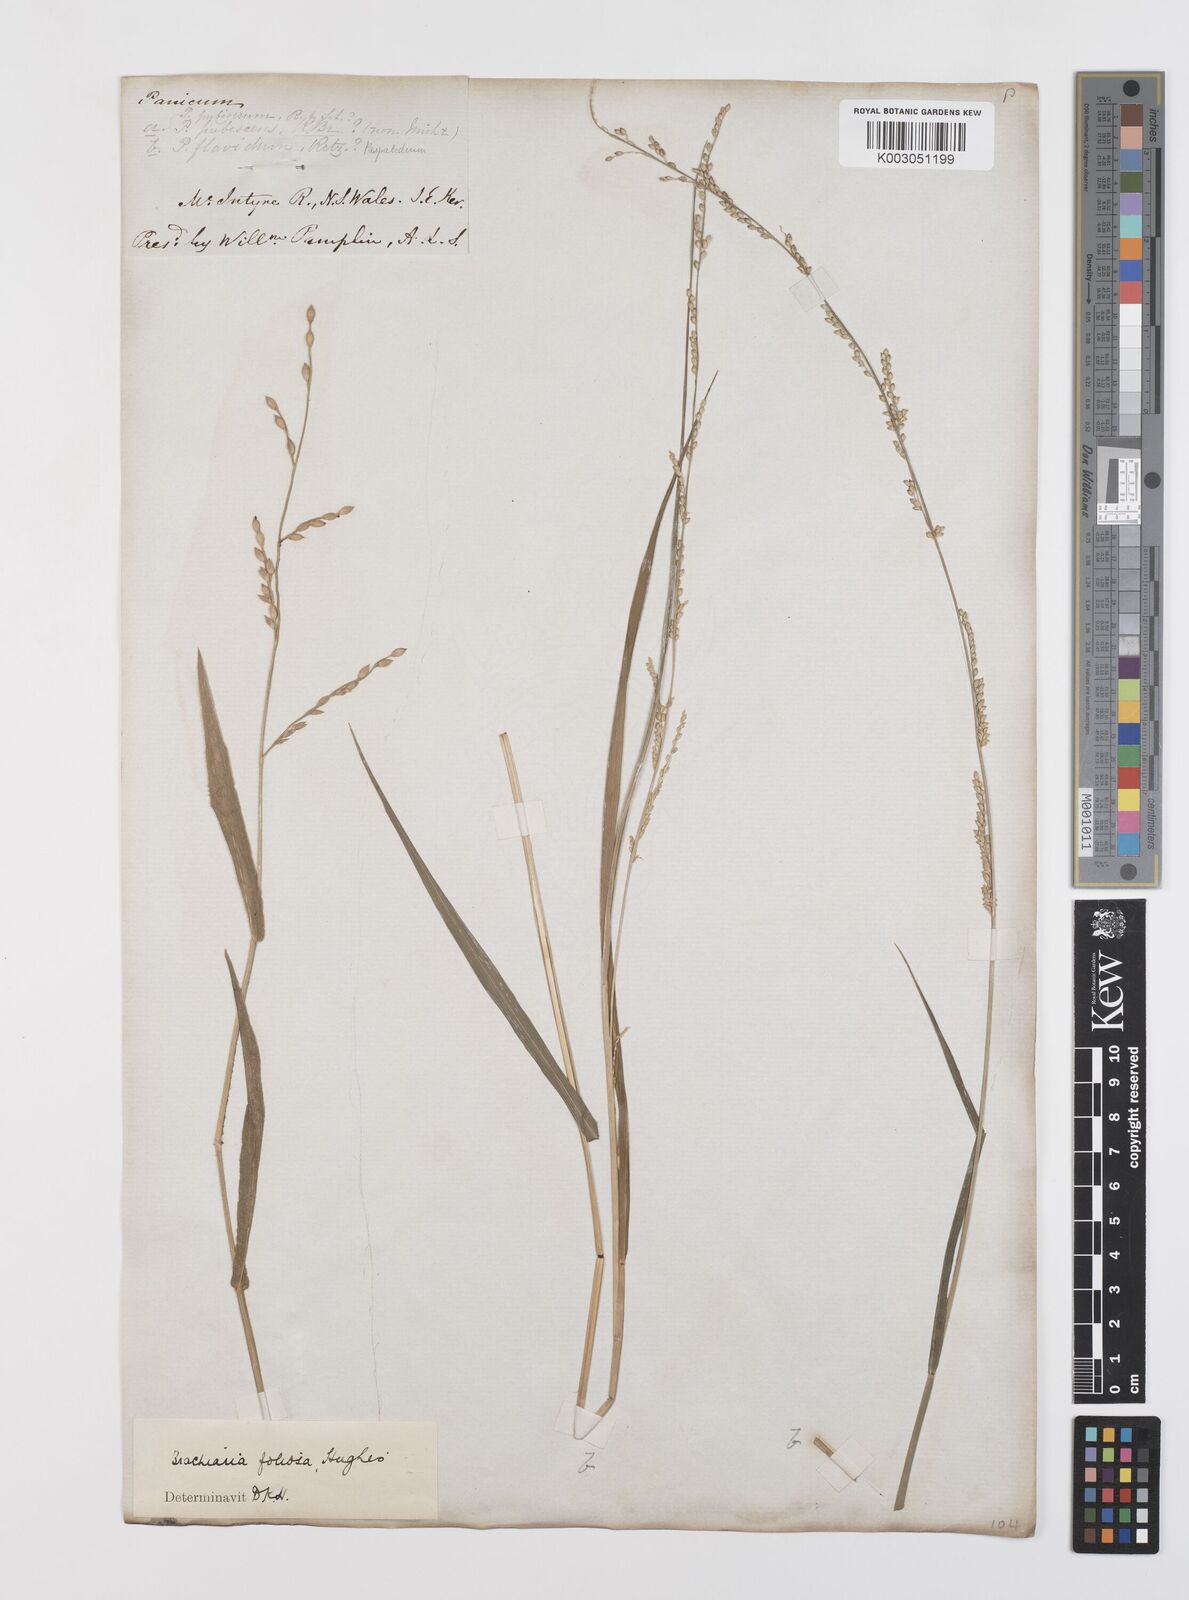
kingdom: Plantae
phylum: Tracheophyta
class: Liliopsida
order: Poales
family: Poaceae
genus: Urochloa
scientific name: Urochloa foliosa
